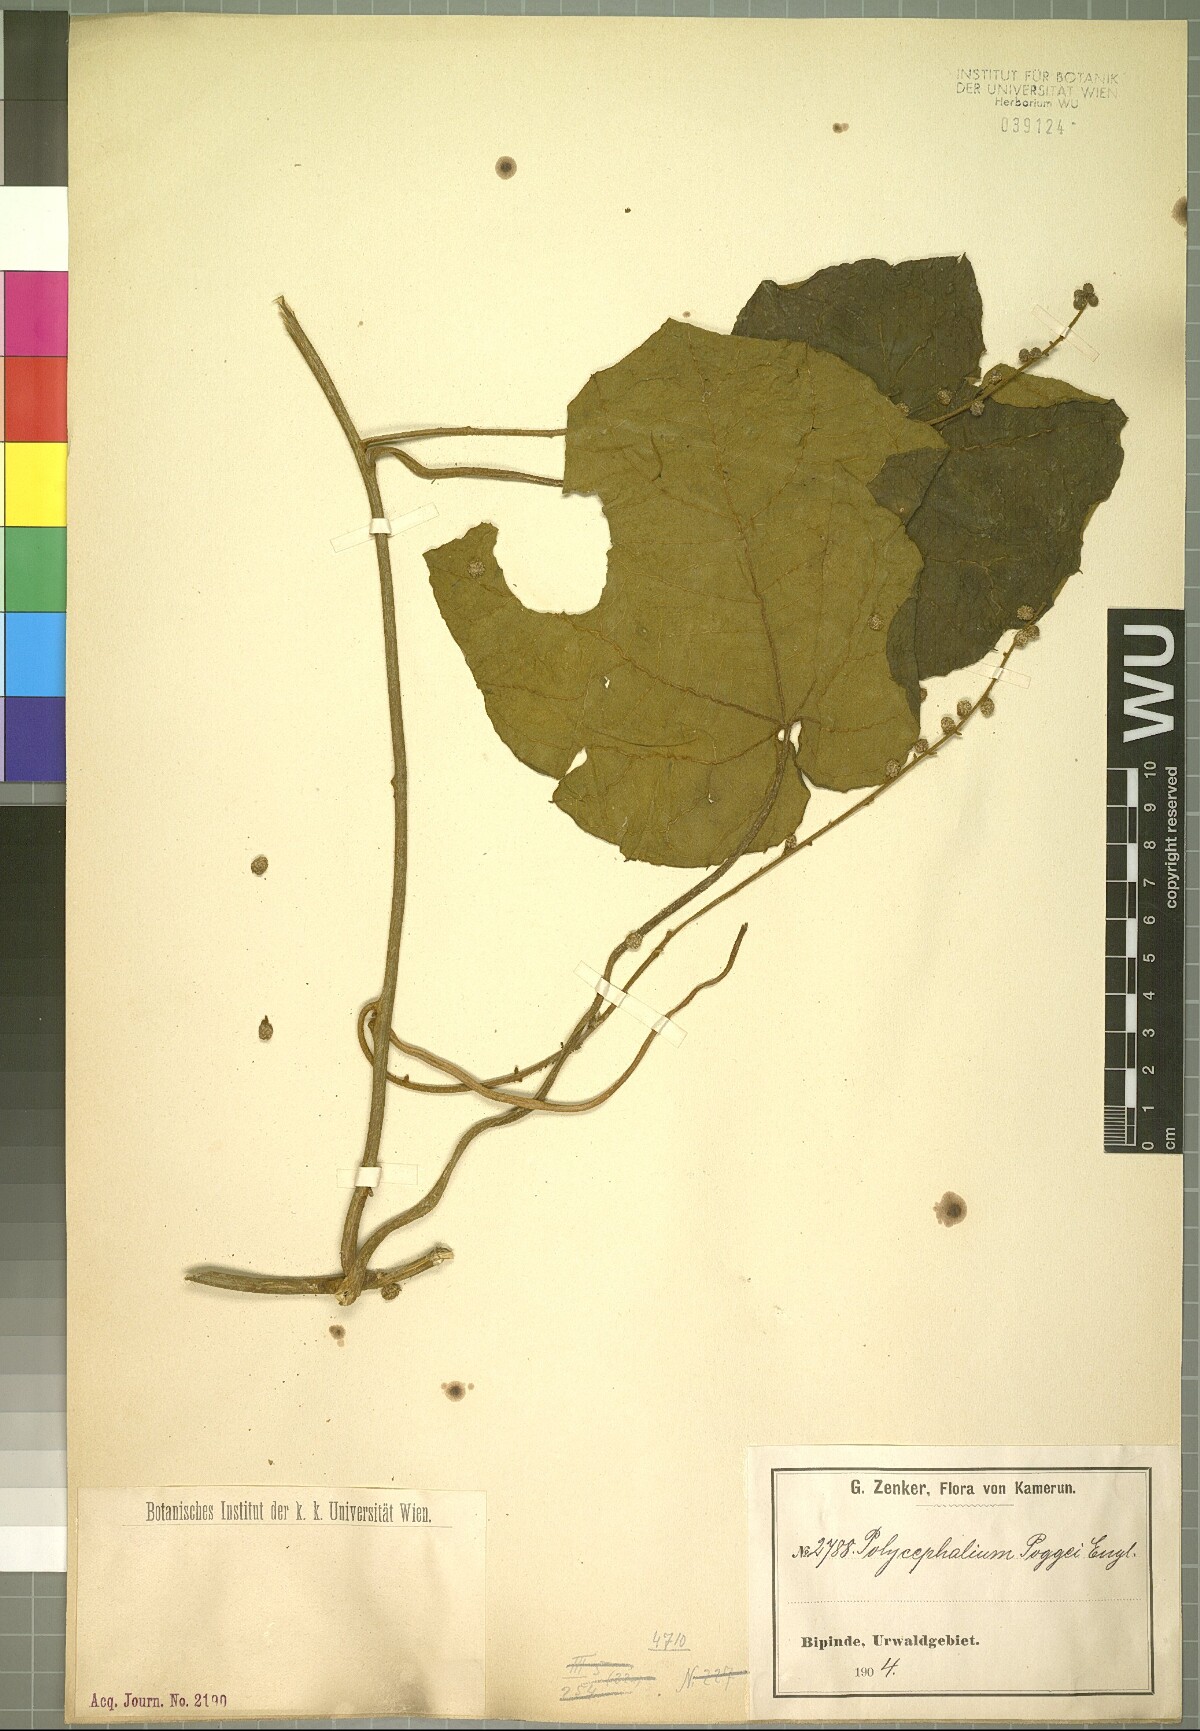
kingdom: Plantae
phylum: Tracheophyta
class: Magnoliopsida
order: Icacinales
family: Icacinaceae
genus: Pyrenacantha
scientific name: Pyrenacantha lobata
